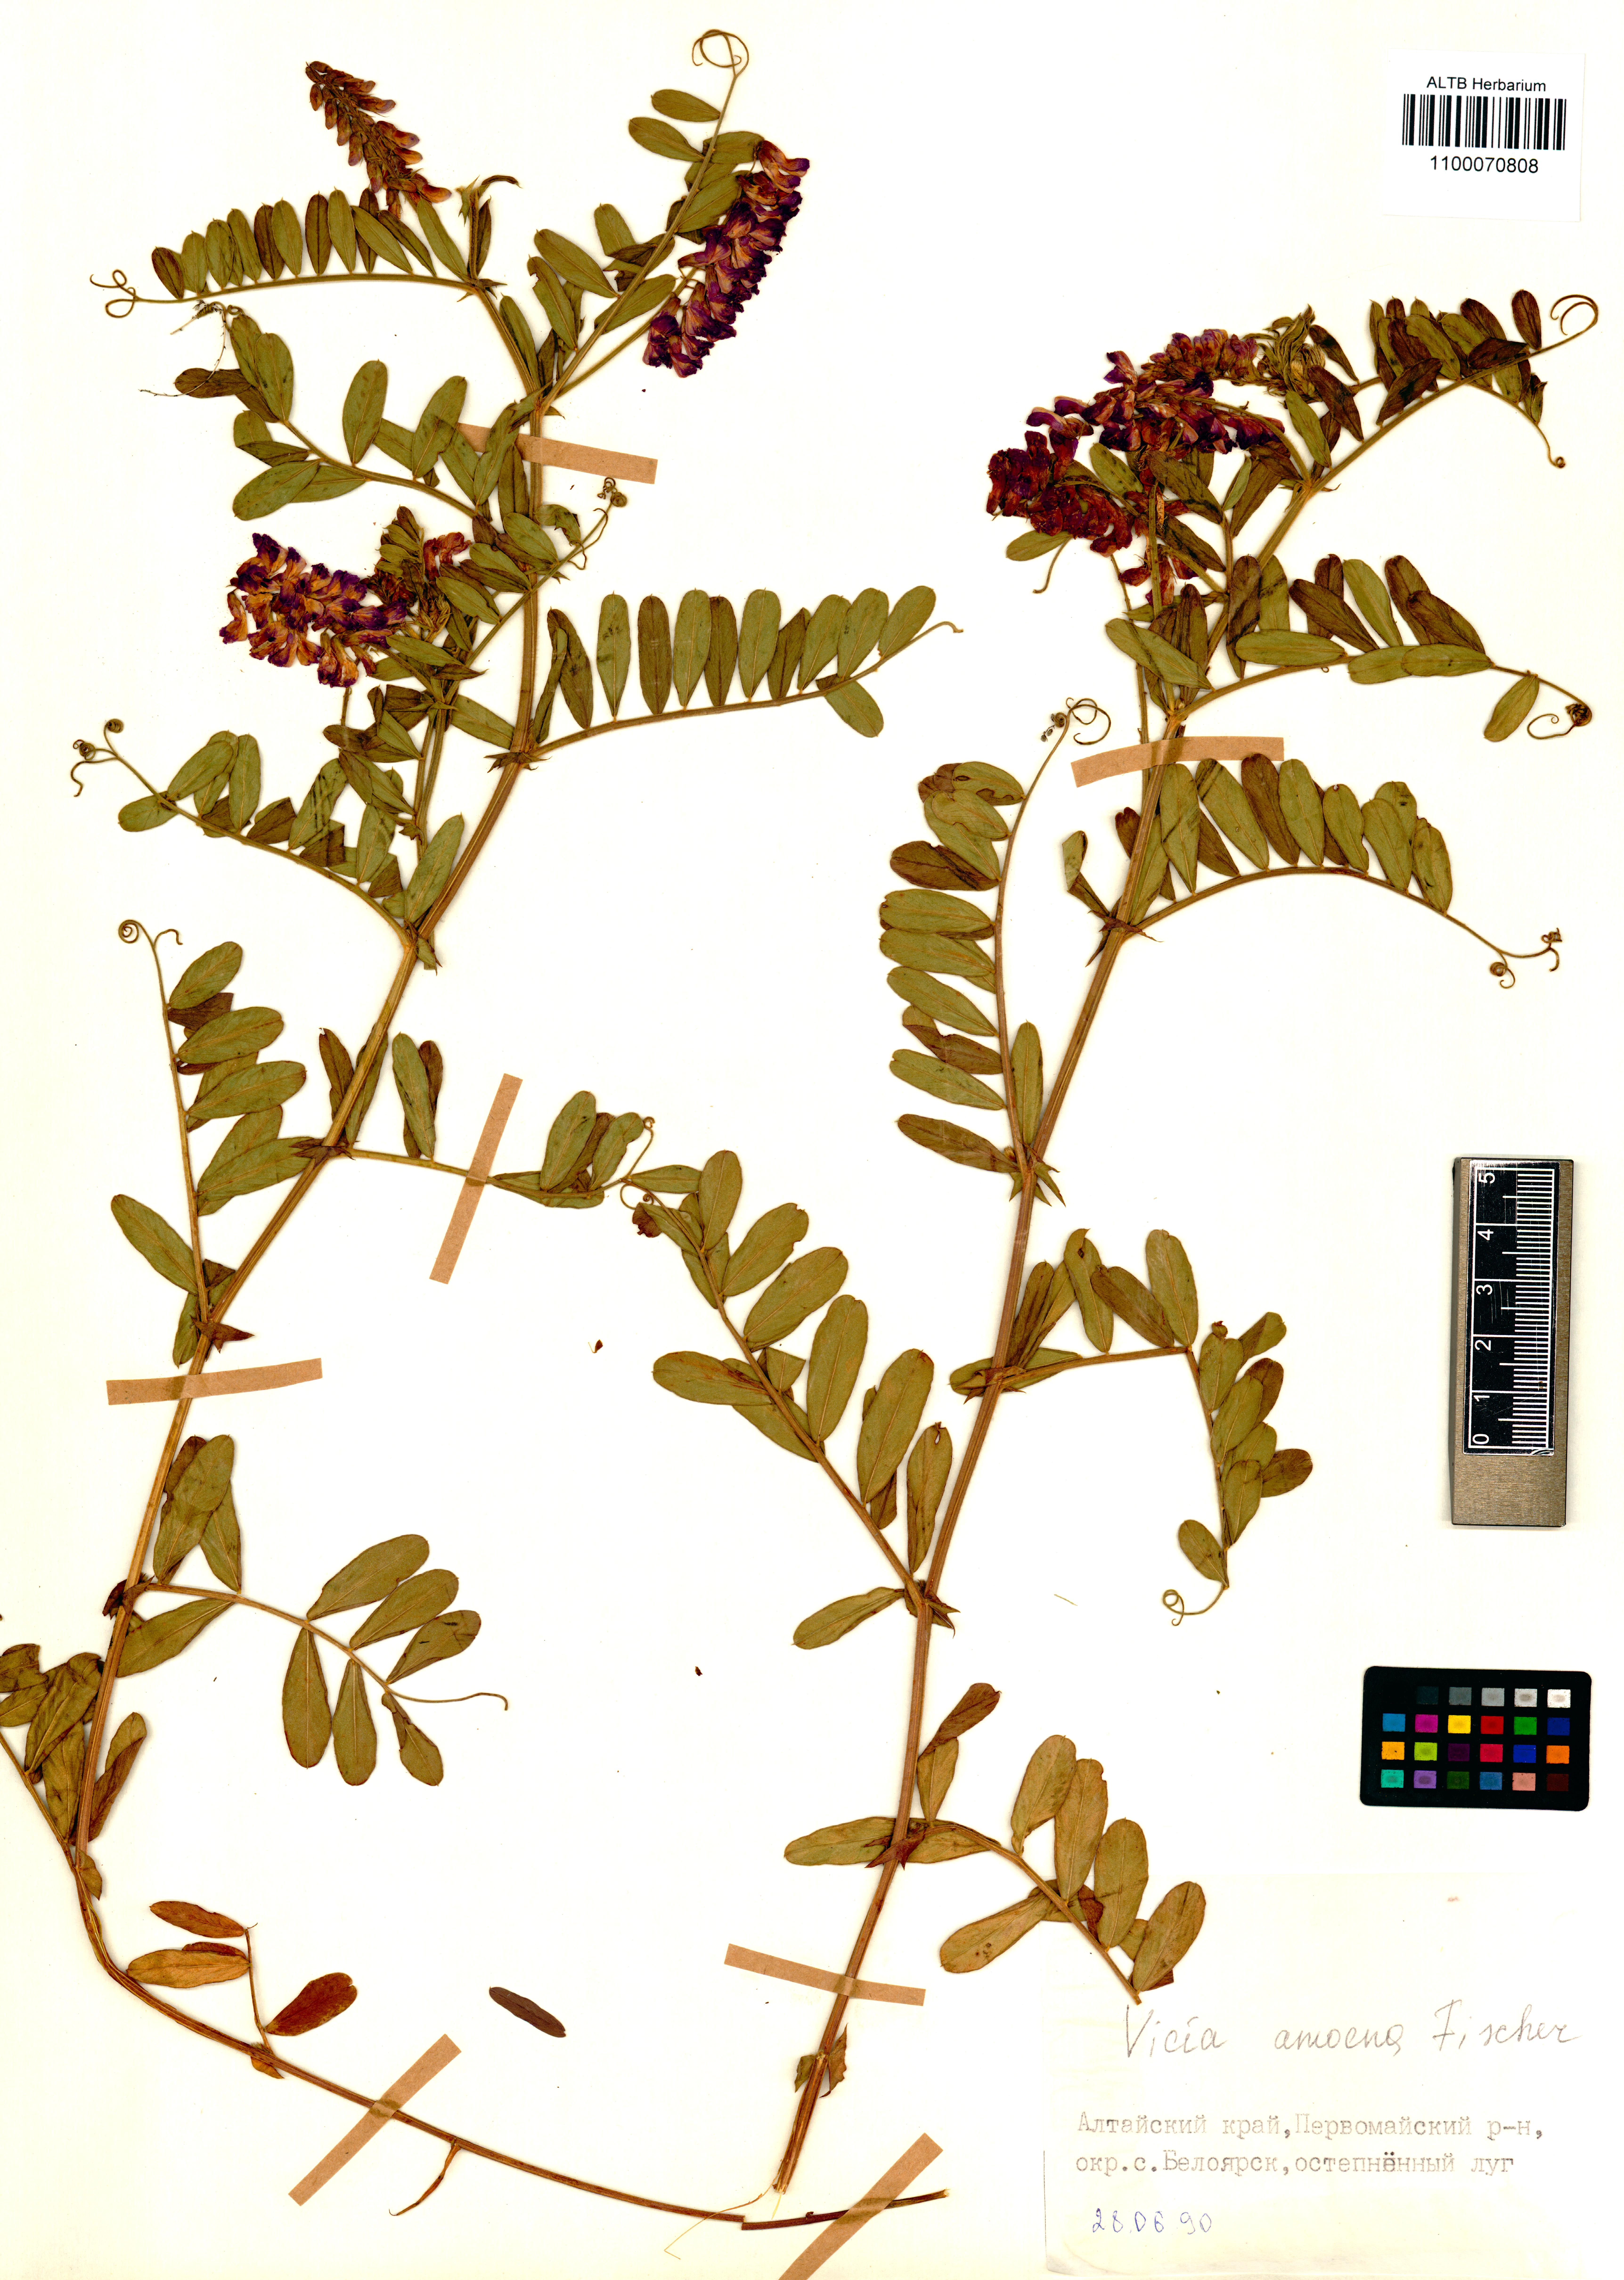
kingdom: Plantae
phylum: Tracheophyta
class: Magnoliopsida
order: Fabales
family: Fabaceae
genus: Vicia
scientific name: Vicia amoena
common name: Cheder ebs
